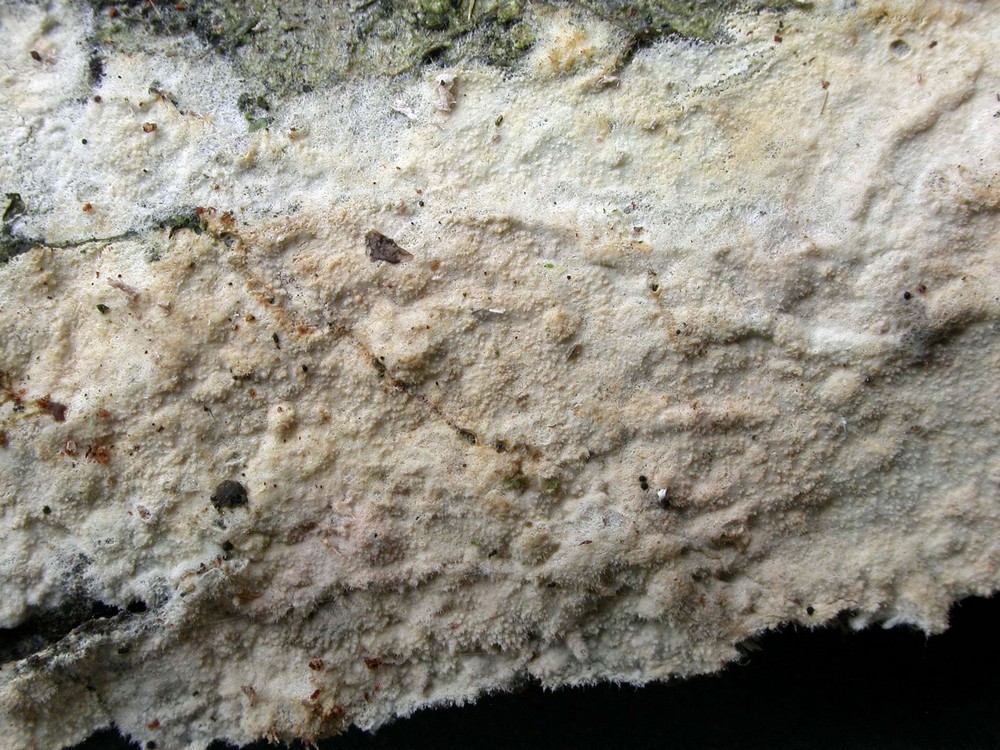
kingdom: Fungi
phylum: Basidiomycota
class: Agaricomycetes
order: Atheliales
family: Atheliaceae
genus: Amphinema
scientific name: Amphinema byssoides
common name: almindelig rodhinde
